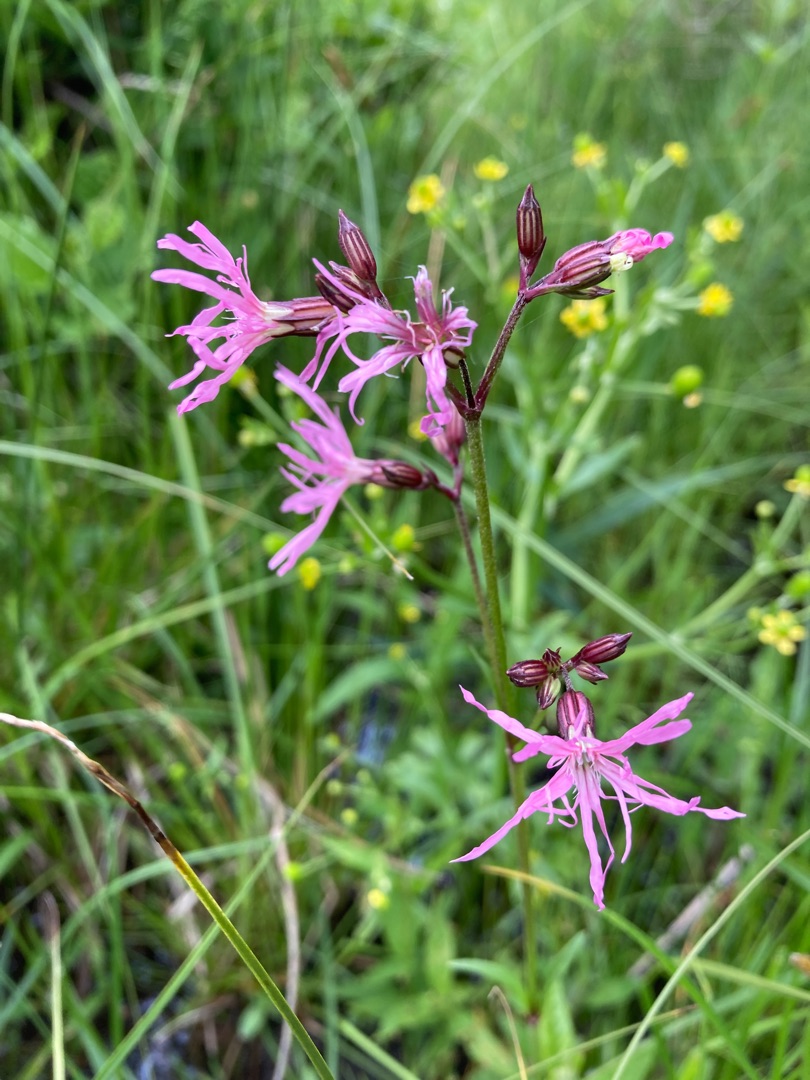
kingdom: Plantae
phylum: Tracheophyta
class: Magnoliopsida
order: Caryophyllales
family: Caryophyllaceae
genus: Silene
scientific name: Silene flos-cuculi
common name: Trævlekrone
